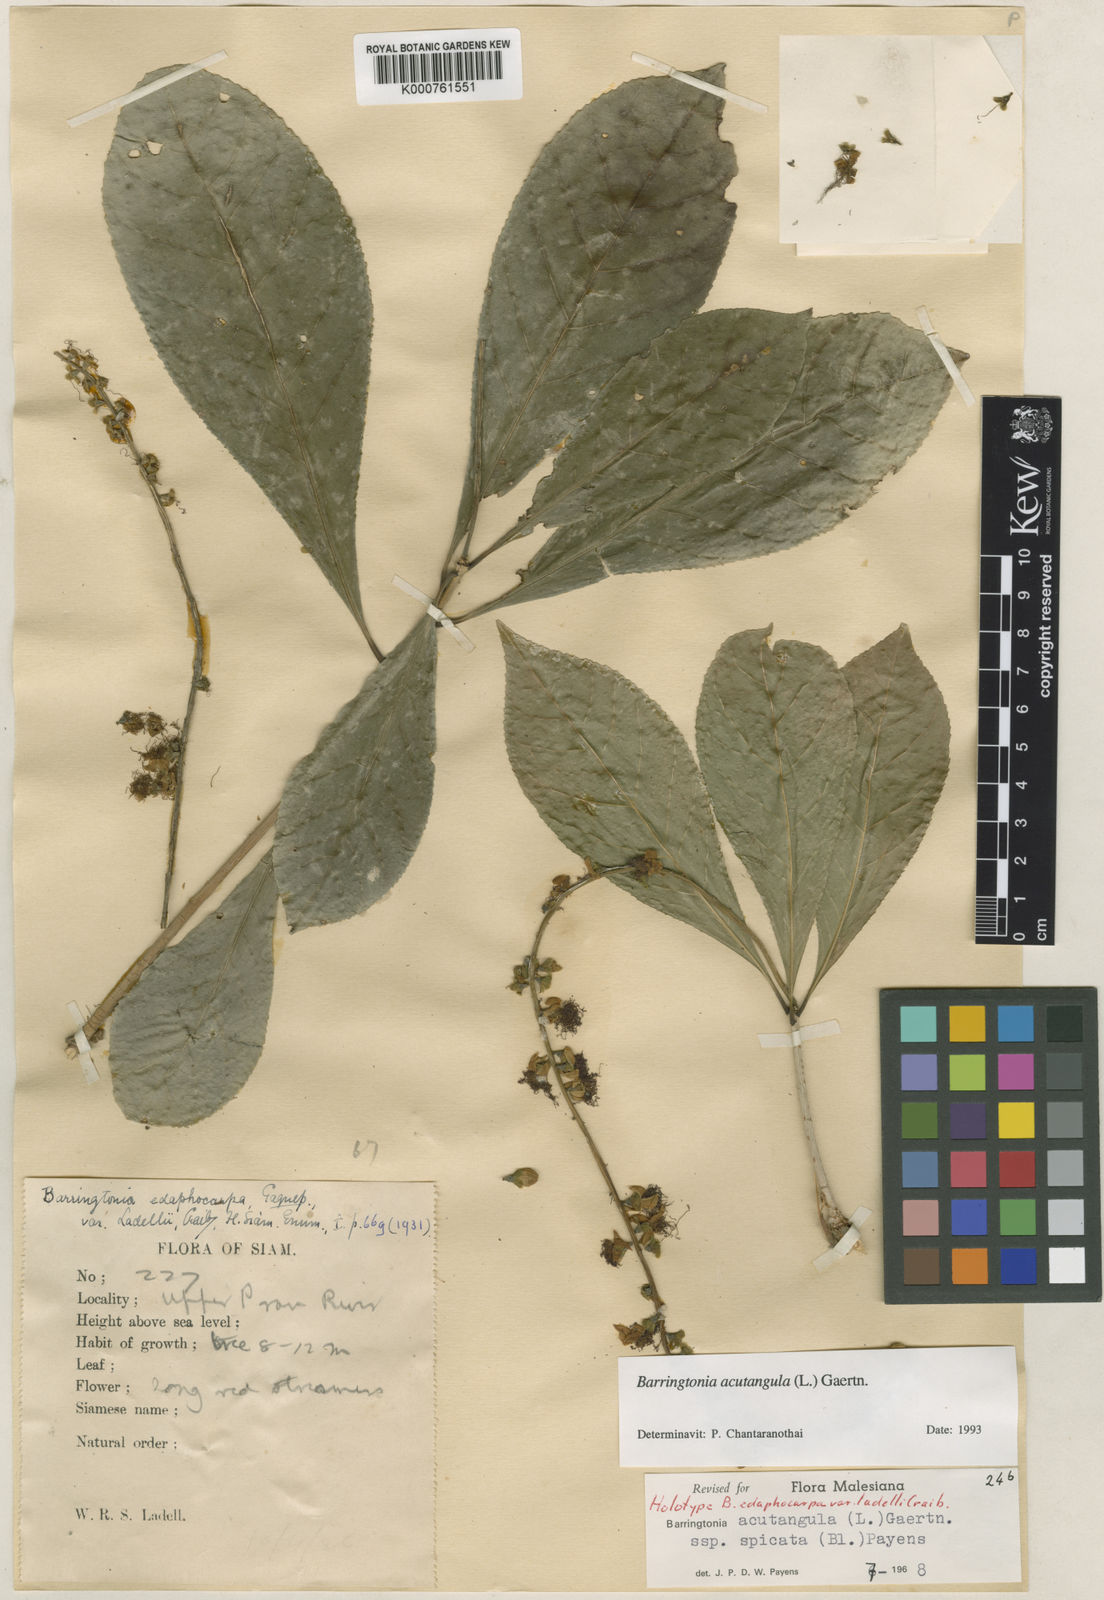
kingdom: Plantae
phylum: Tracheophyta
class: Magnoliopsida
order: Ericales
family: Lecythidaceae
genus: Barringtonia
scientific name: Barringtonia acutangula
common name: Freshwater mangrove
